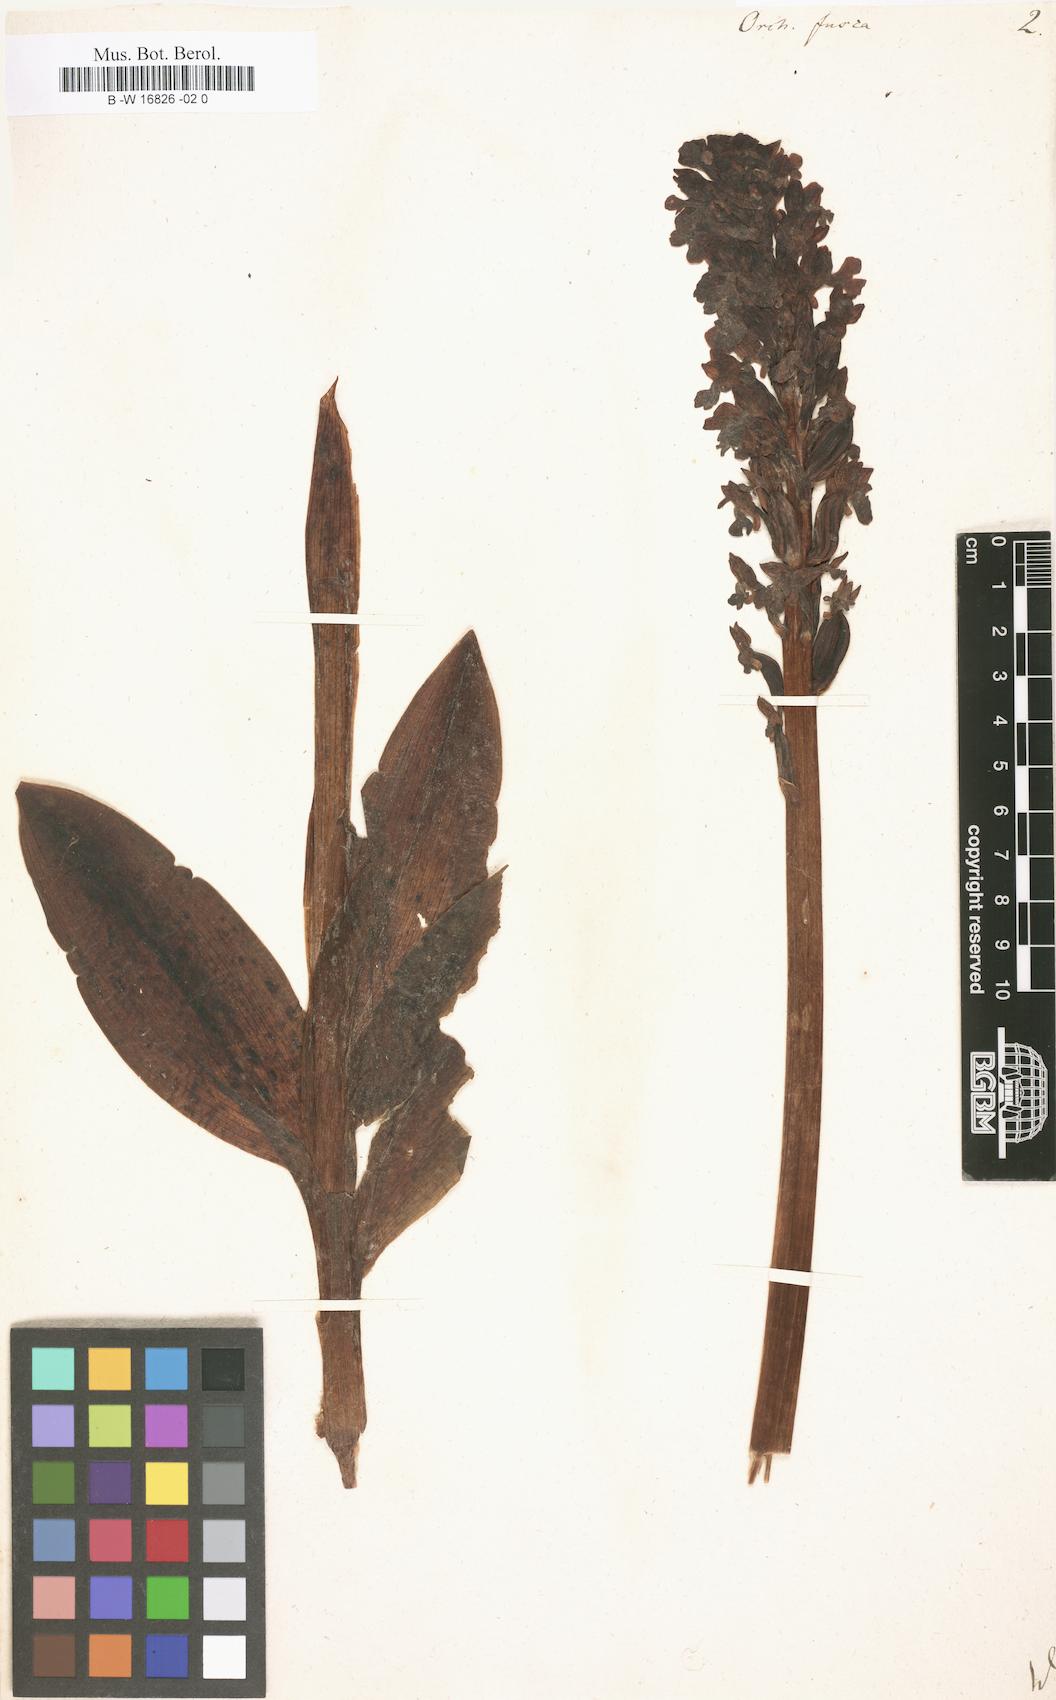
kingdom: Plantae
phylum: Tracheophyta
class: Liliopsida
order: Asparagales
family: Orchidaceae
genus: Orchis
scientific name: Orchis purpurea
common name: Lady orchid
